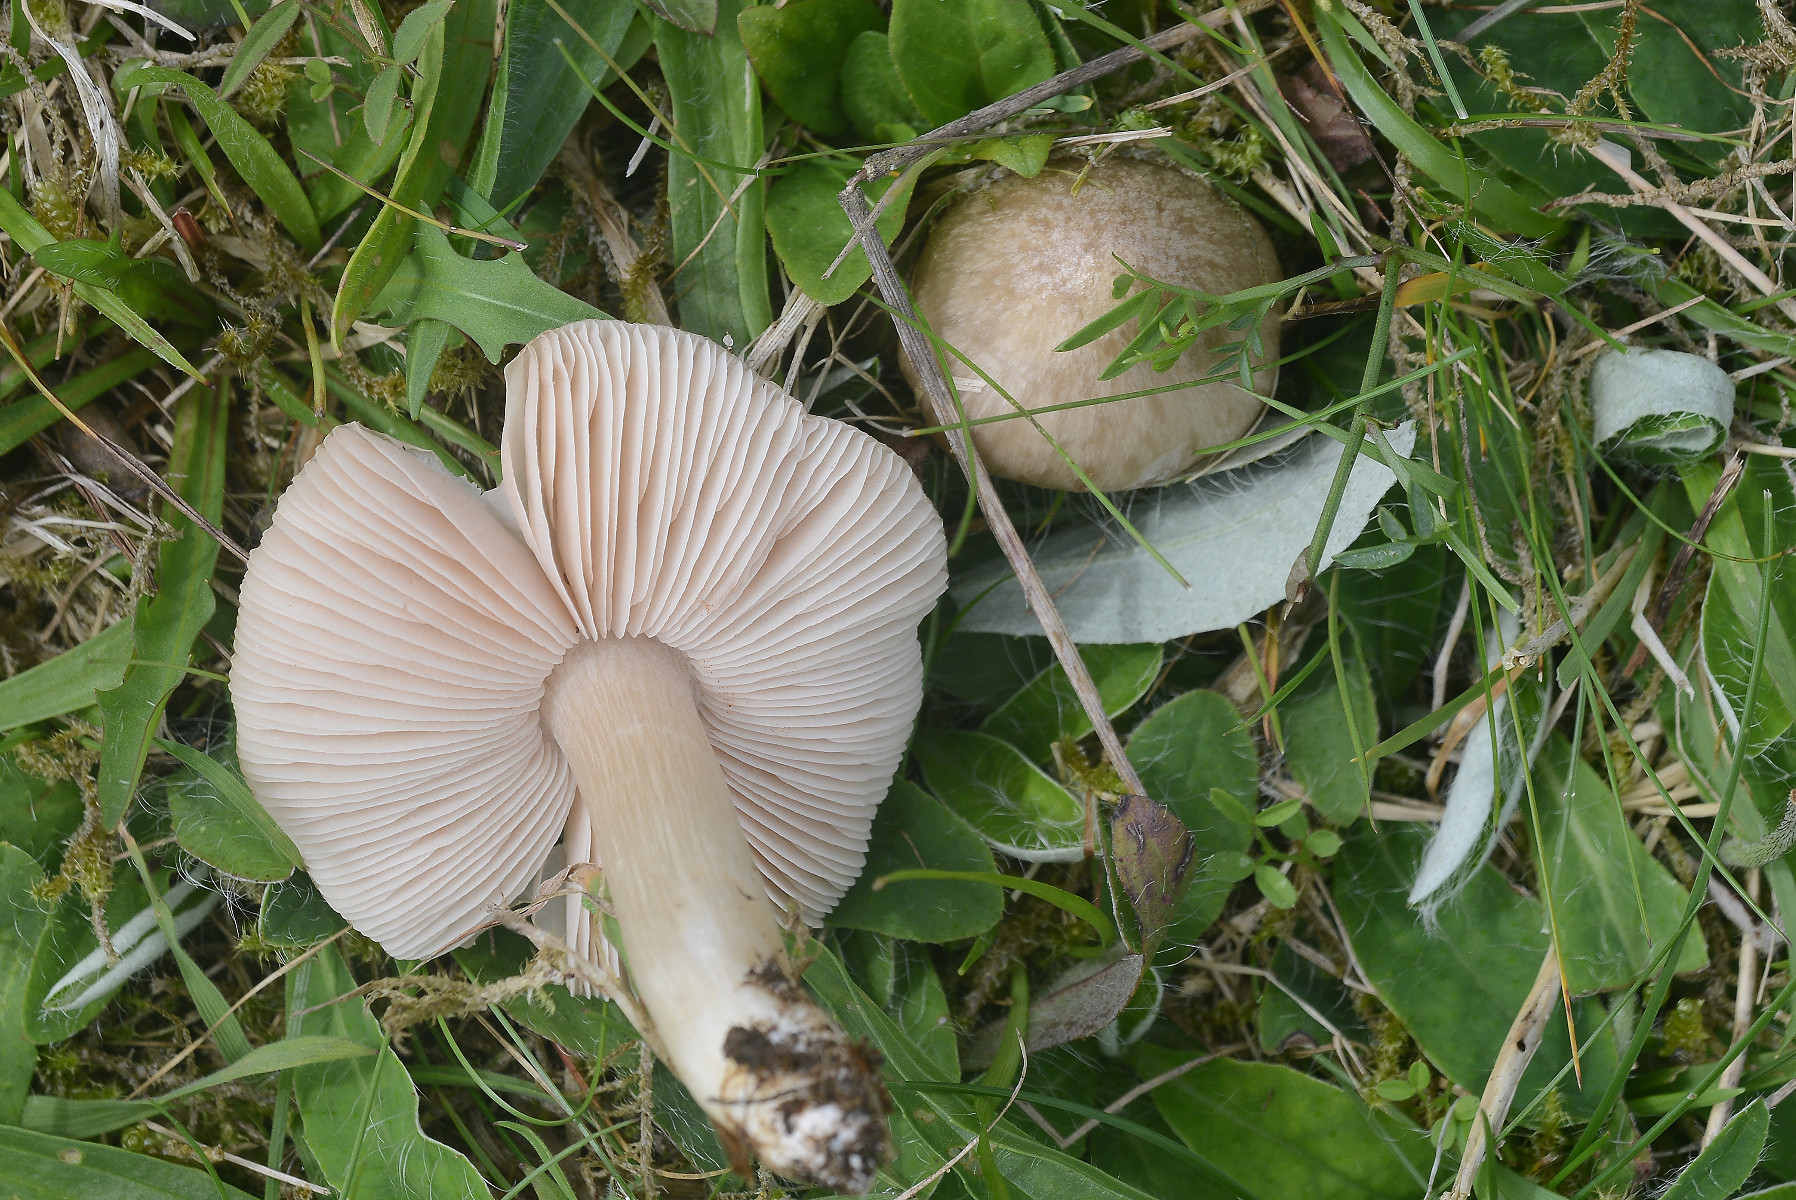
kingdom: Fungi
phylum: Basidiomycota
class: Agaricomycetes
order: Agaricales
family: Entolomataceae
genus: Entoloma
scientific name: Entoloma prunuloides
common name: mel-rødblad
